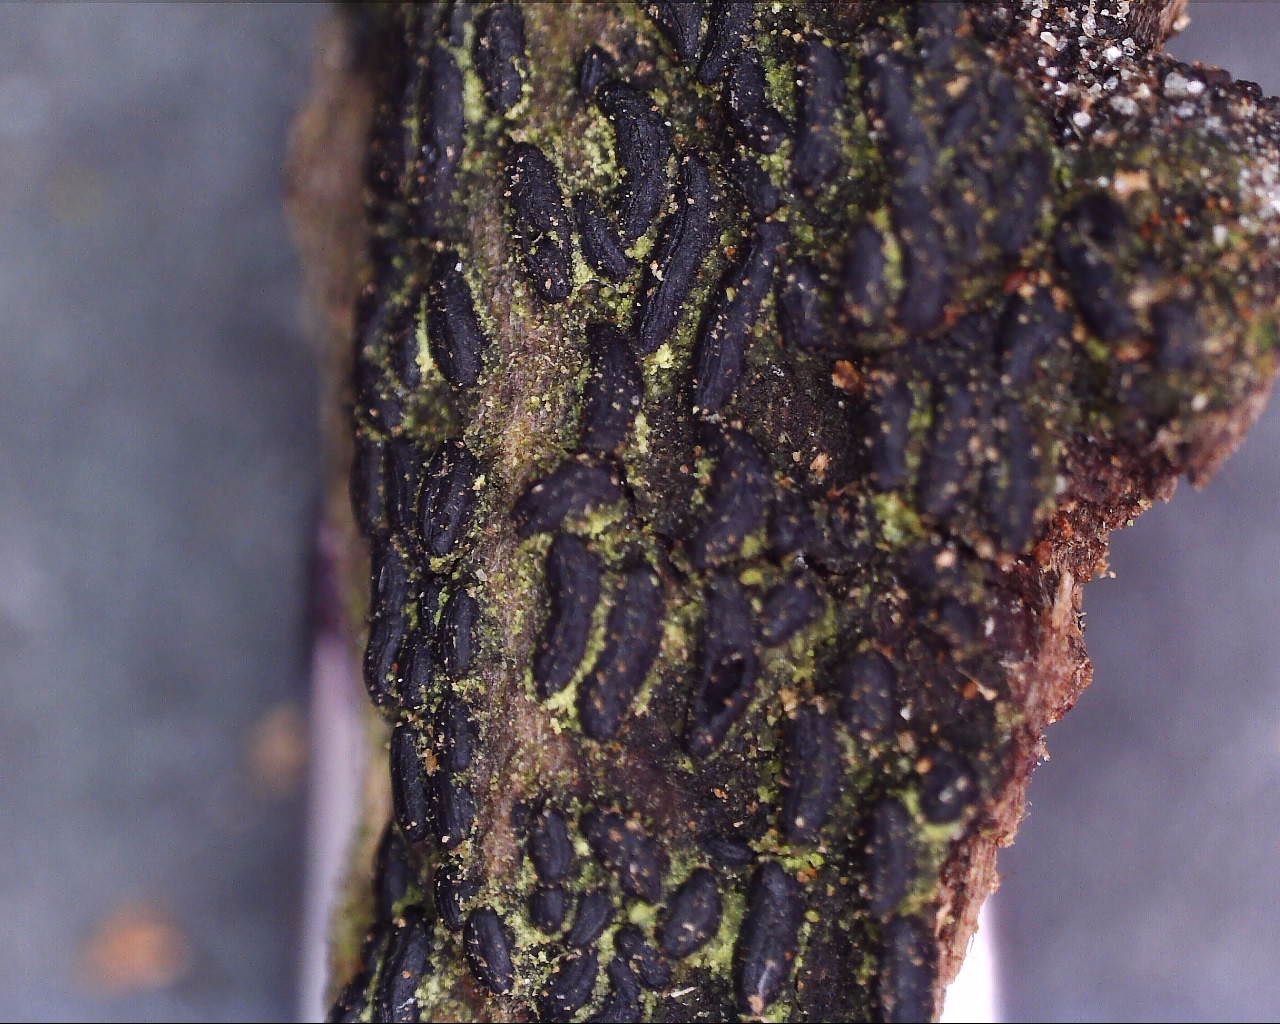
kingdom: Fungi
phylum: Ascomycota
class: Dothideomycetes
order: Hysteriales
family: Hysteriaceae
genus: Hysterium
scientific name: Hysterium acuminatum
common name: almindelig kulmund
